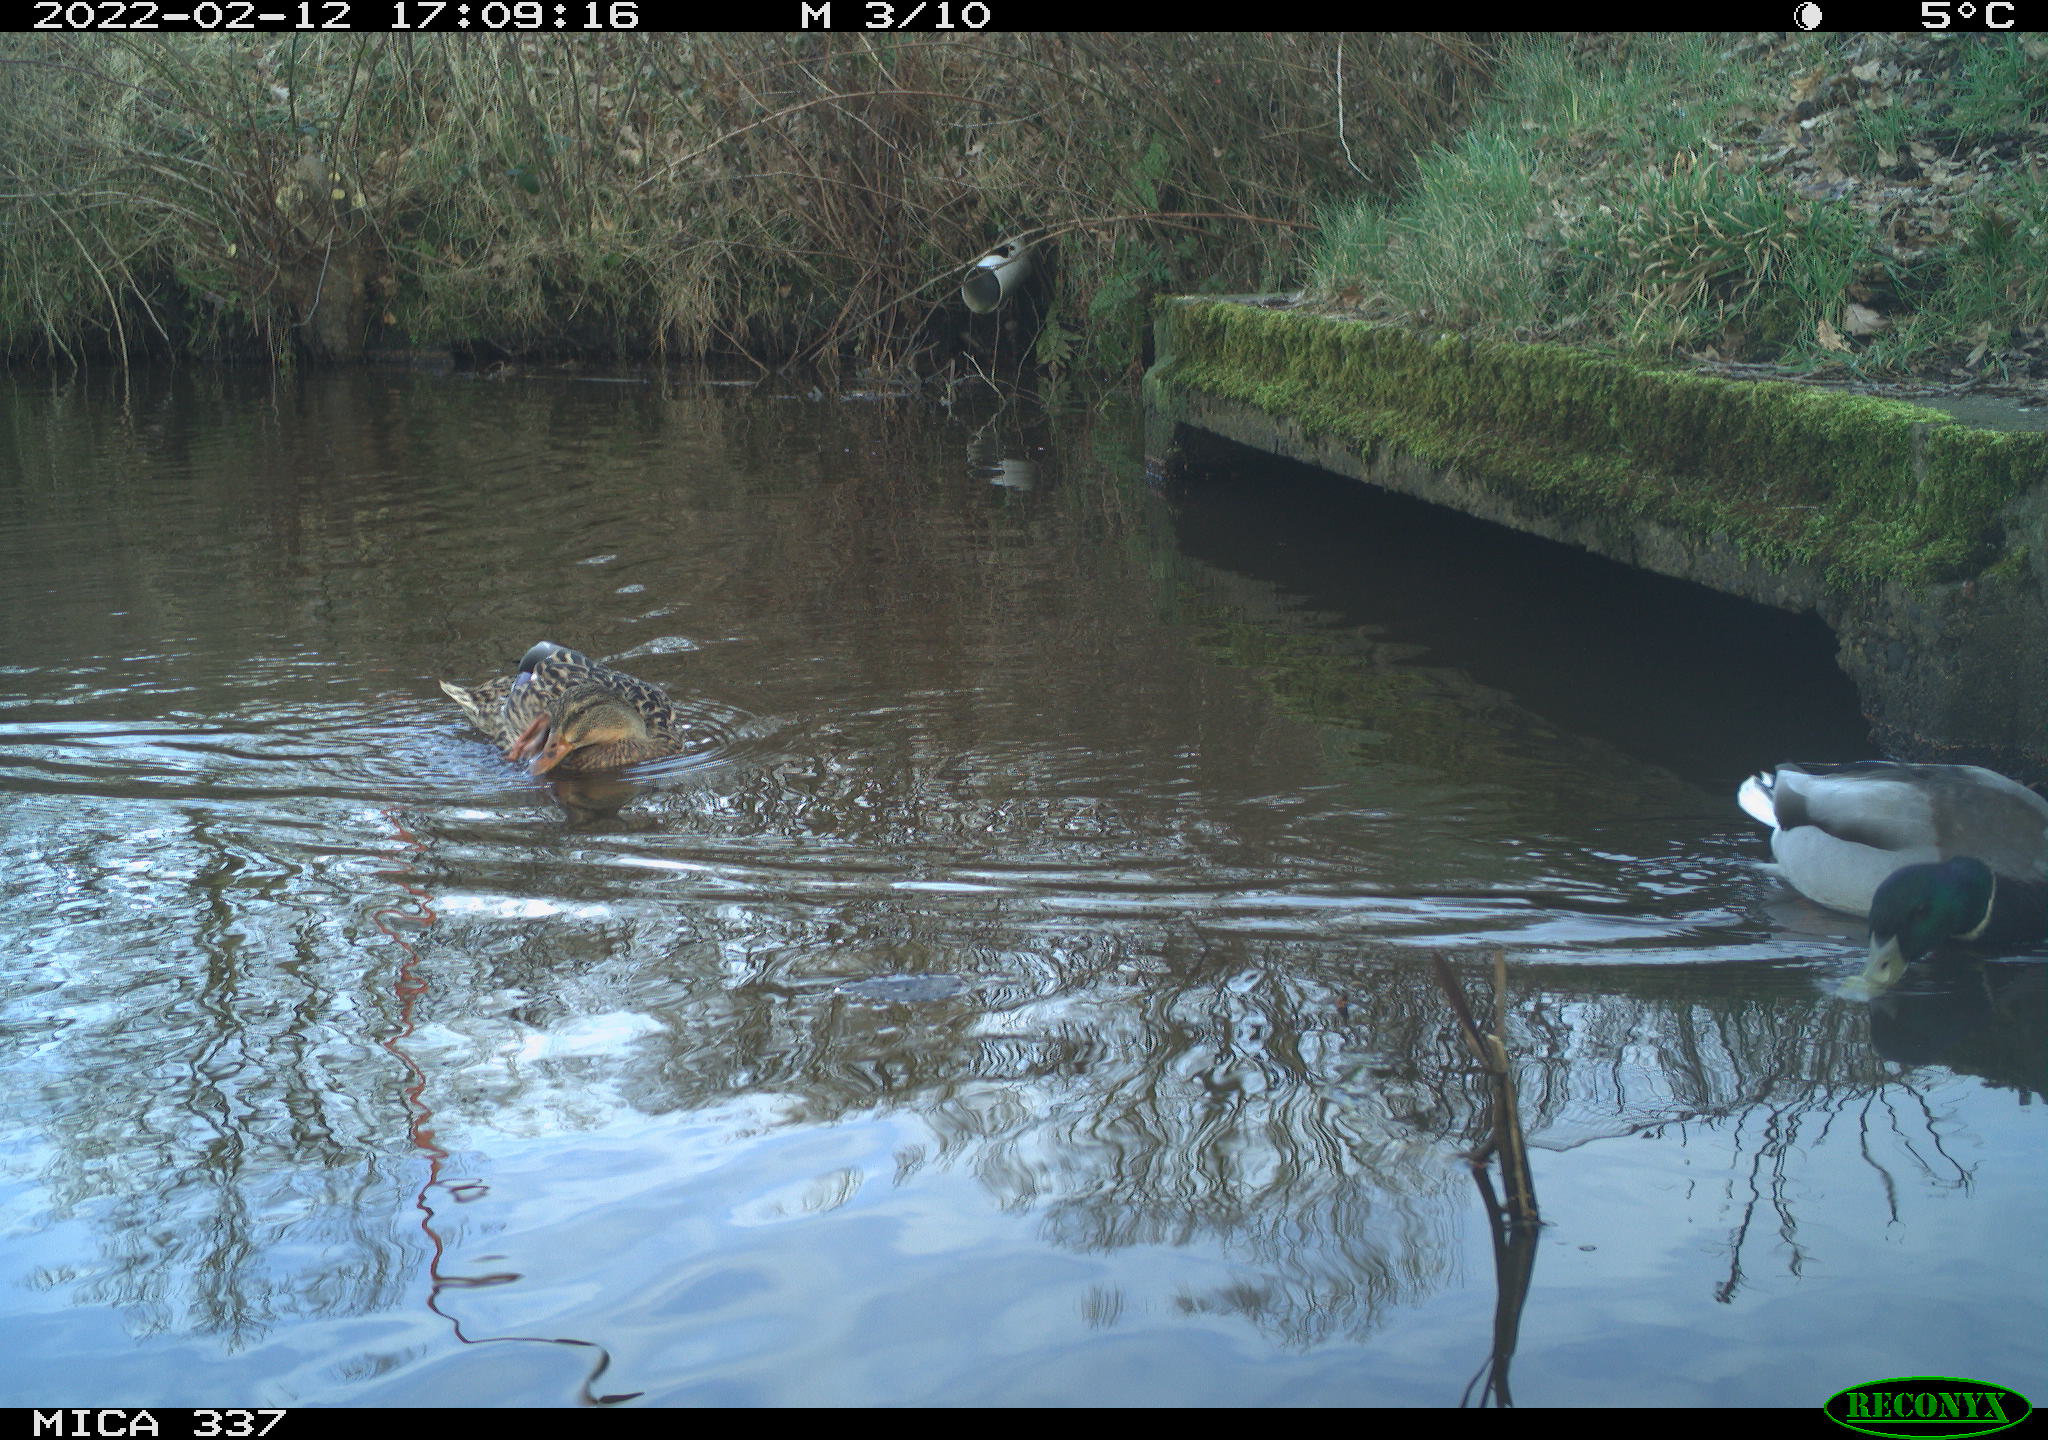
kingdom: Animalia
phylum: Chordata
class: Aves
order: Anseriformes
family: Anatidae
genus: Anas
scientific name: Anas platyrhynchos
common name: Mallard
